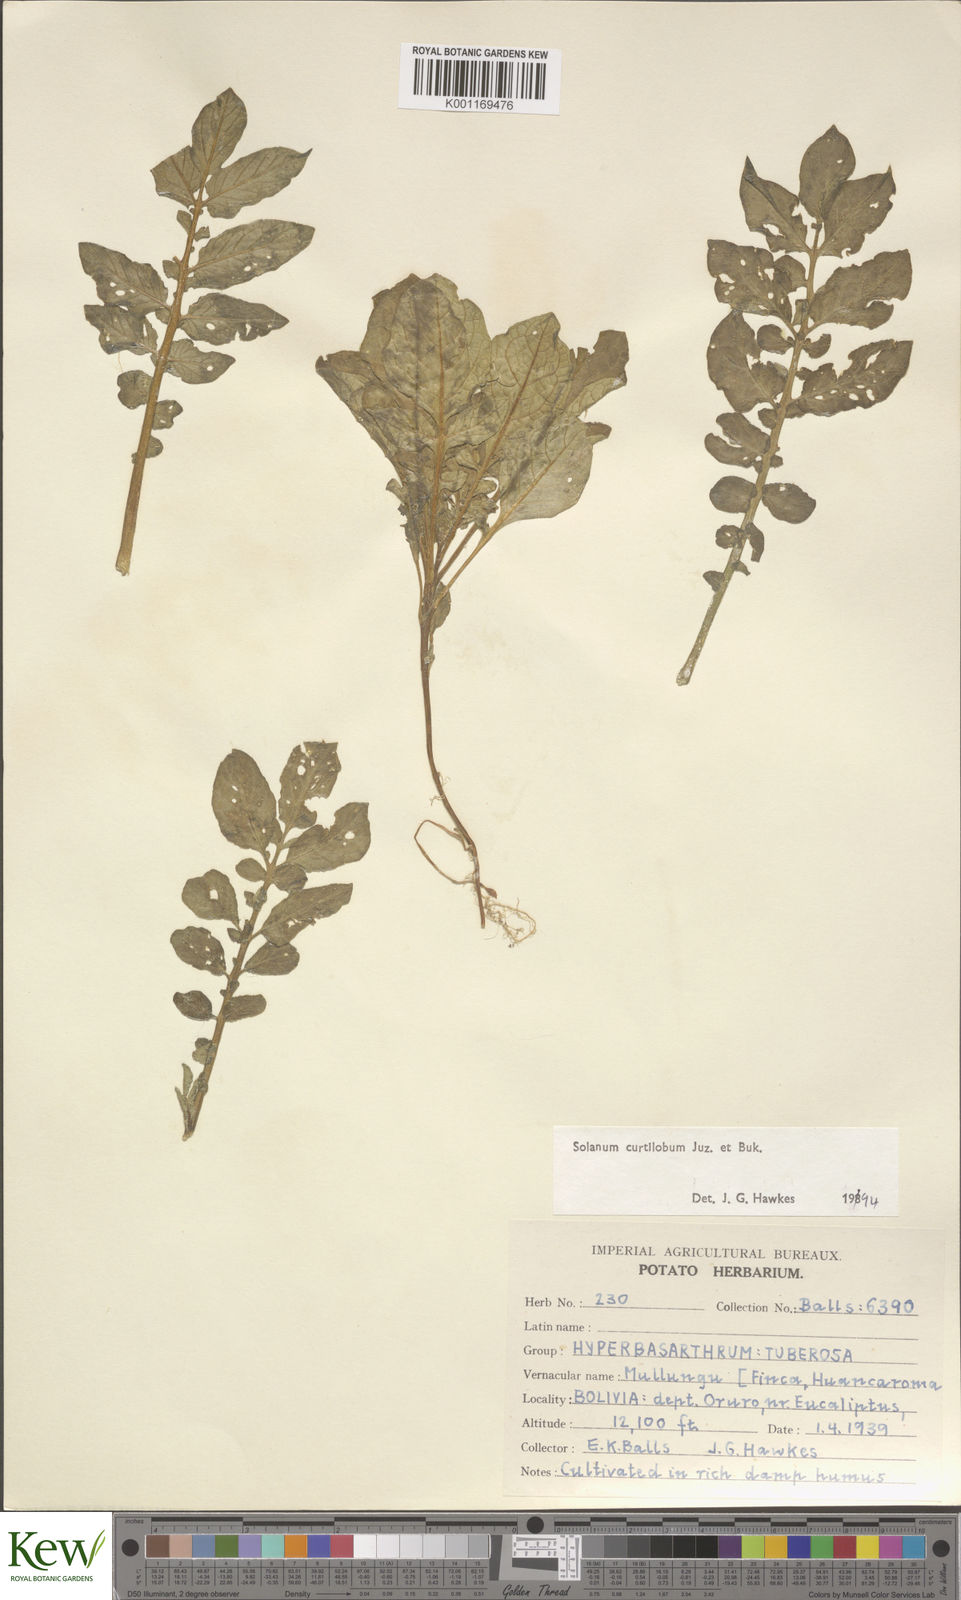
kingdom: Plantae
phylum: Tracheophyta
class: Magnoliopsida
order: Solanales
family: Solanaceae
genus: Solanum
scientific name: Solanum curtilobum
